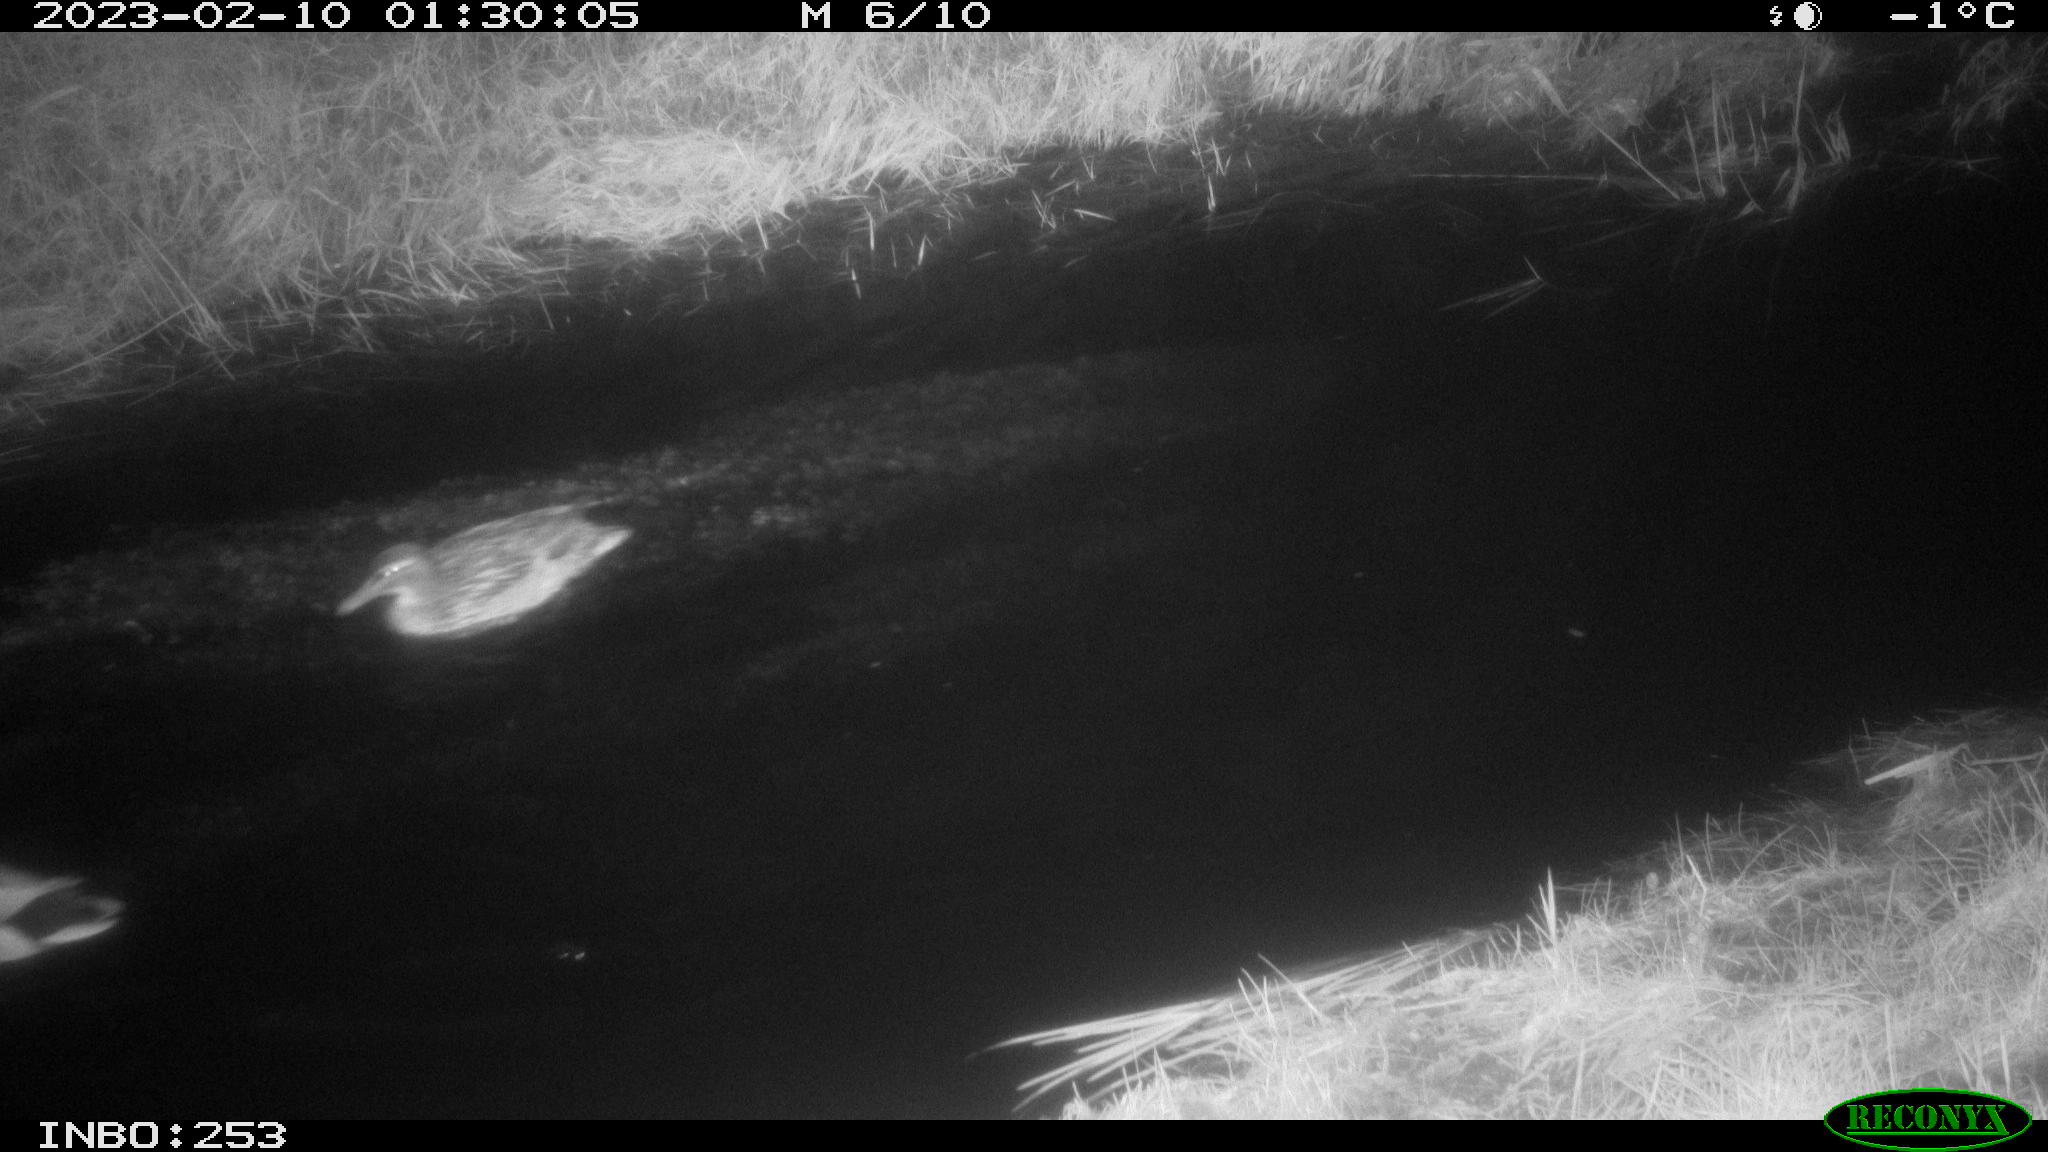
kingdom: Animalia
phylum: Chordata
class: Aves
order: Anseriformes
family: Anatidae
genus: Anas
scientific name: Anas
